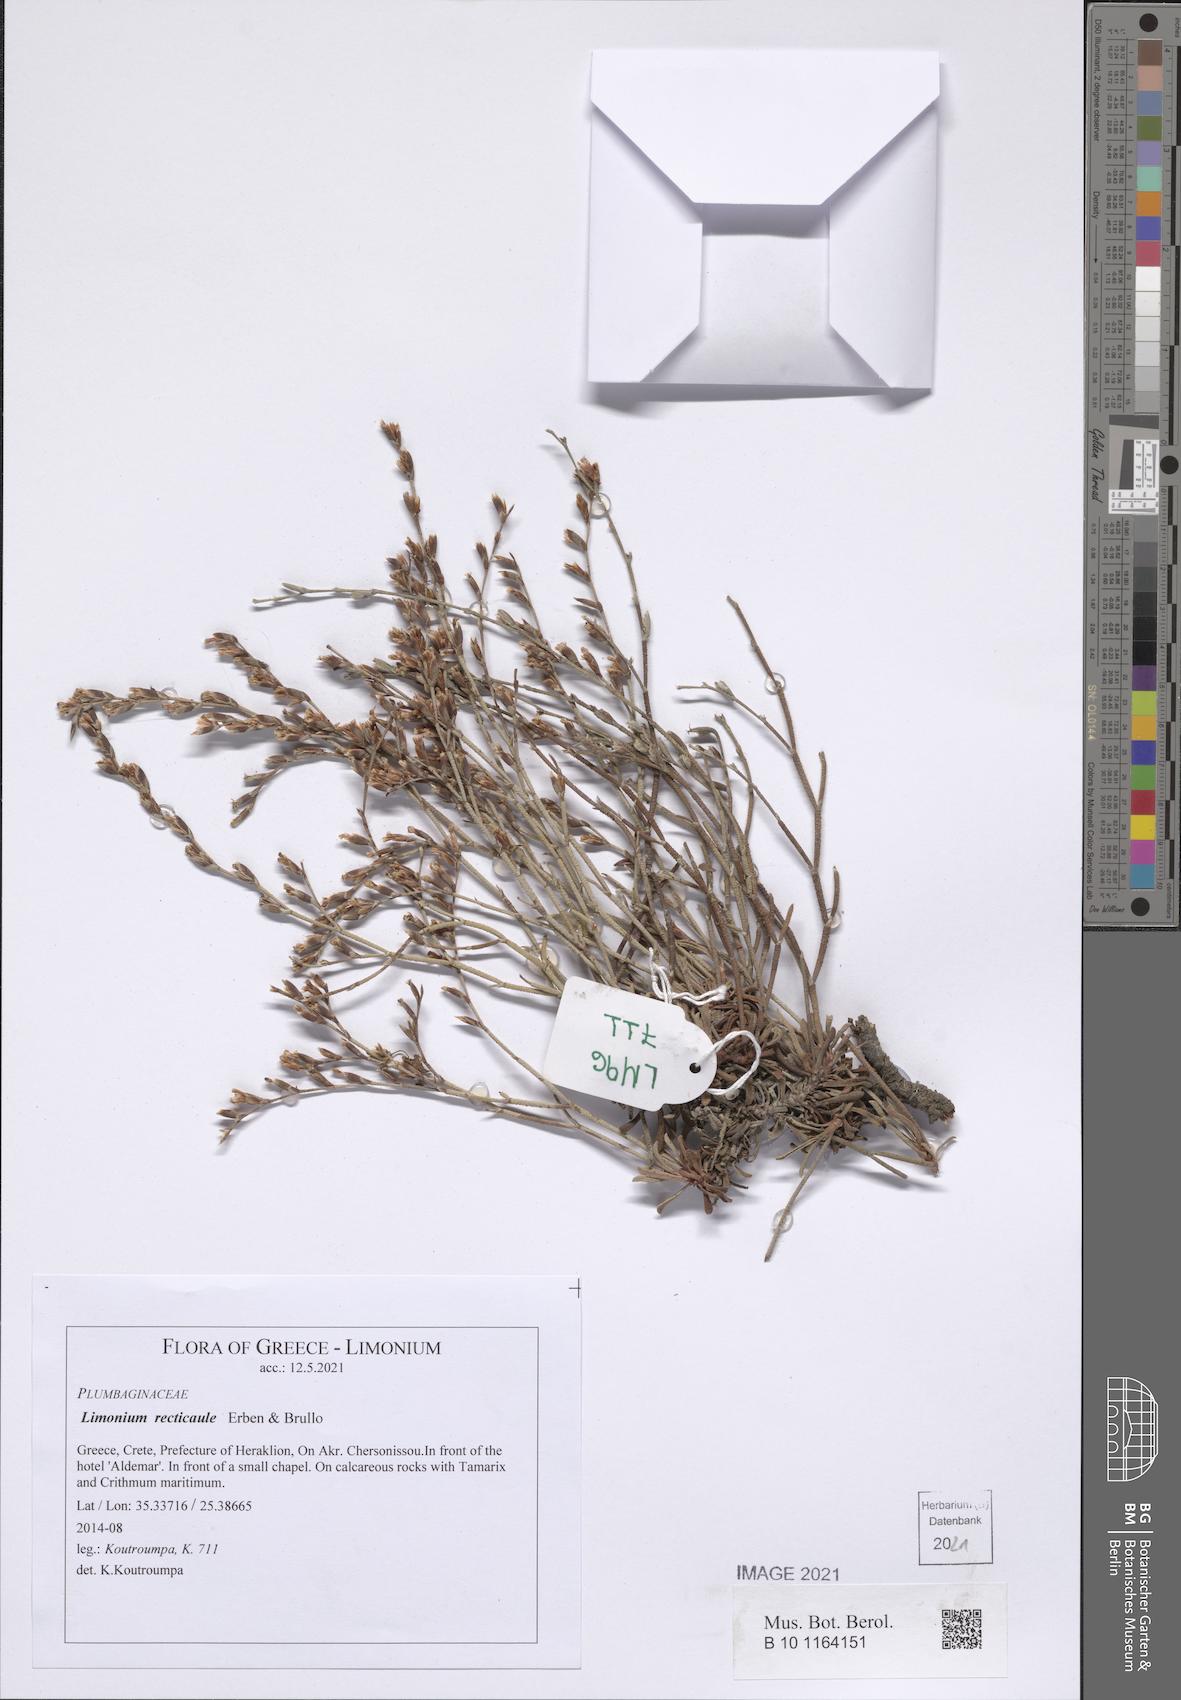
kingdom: Plantae
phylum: Tracheophyta
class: Magnoliopsida
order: Caryophyllales
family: Plumbaginaceae
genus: Limonium
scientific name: Limonium recticaule
